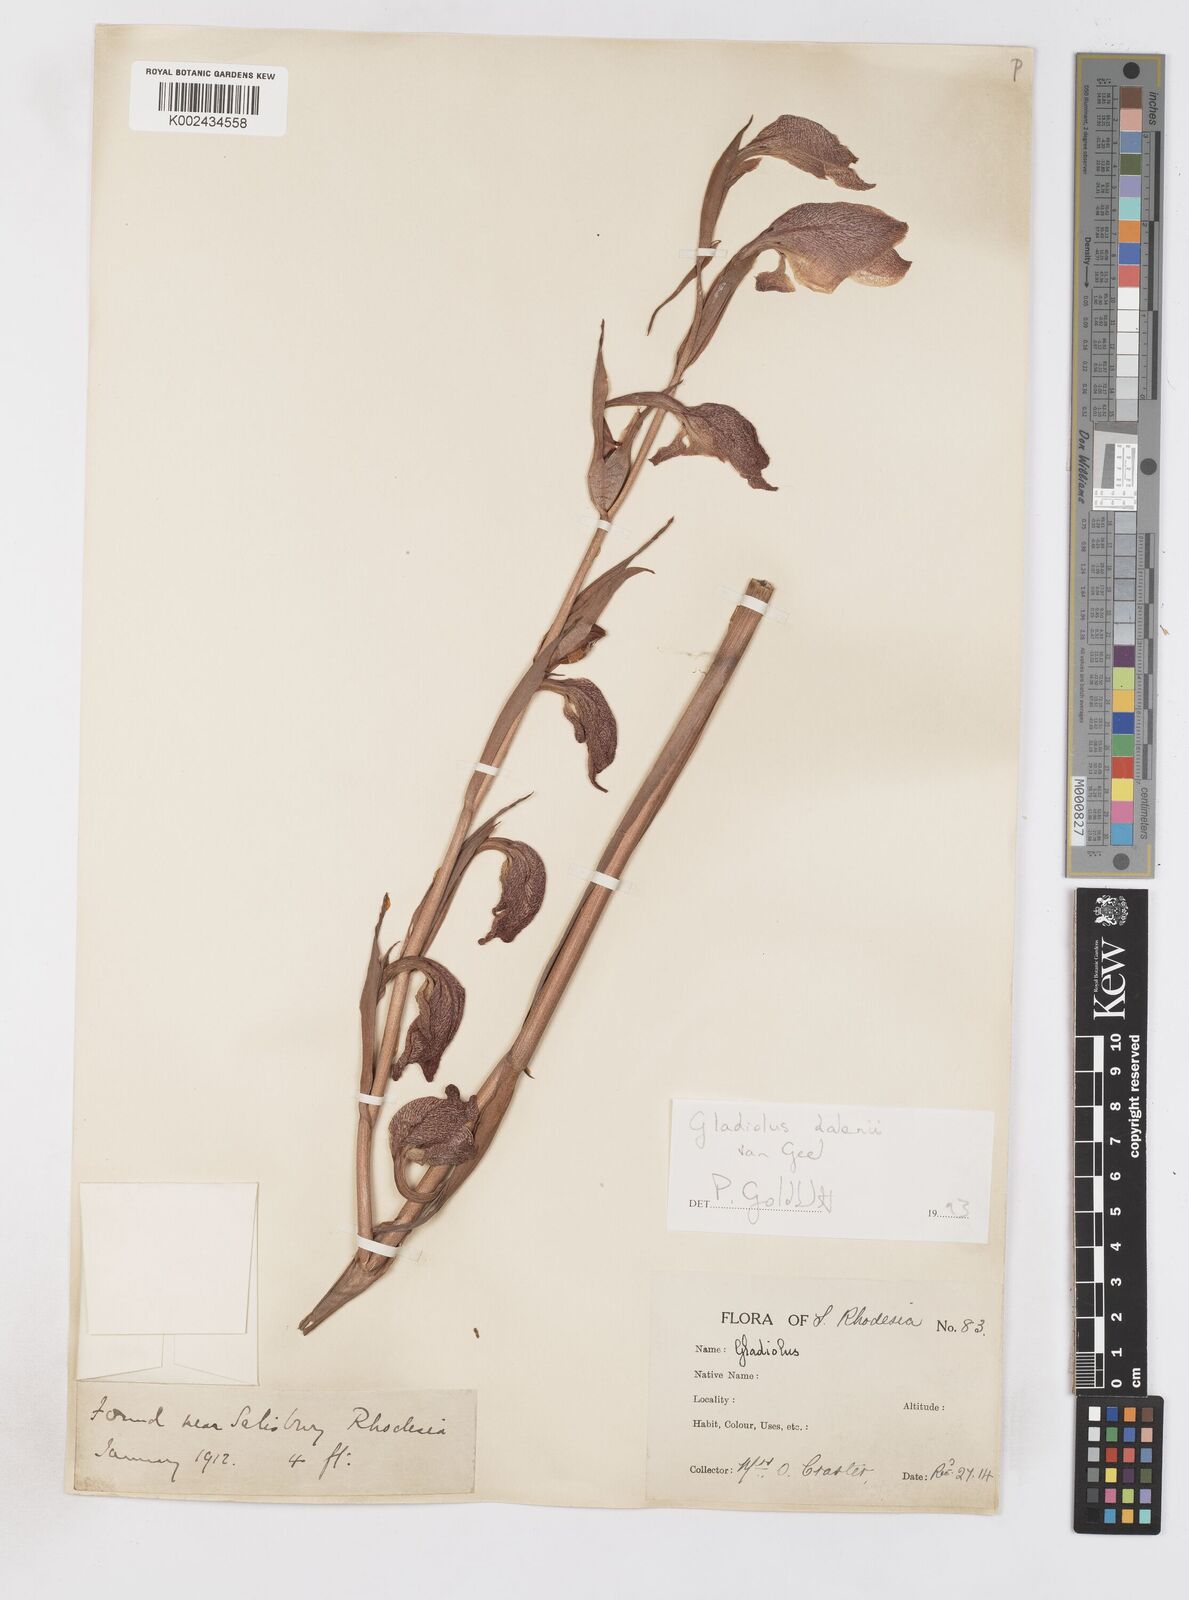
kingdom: Plantae
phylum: Tracheophyta
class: Liliopsida
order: Asparagales
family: Iridaceae
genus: Gladiolus
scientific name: Gladiolus dalenii
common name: Cornflag
